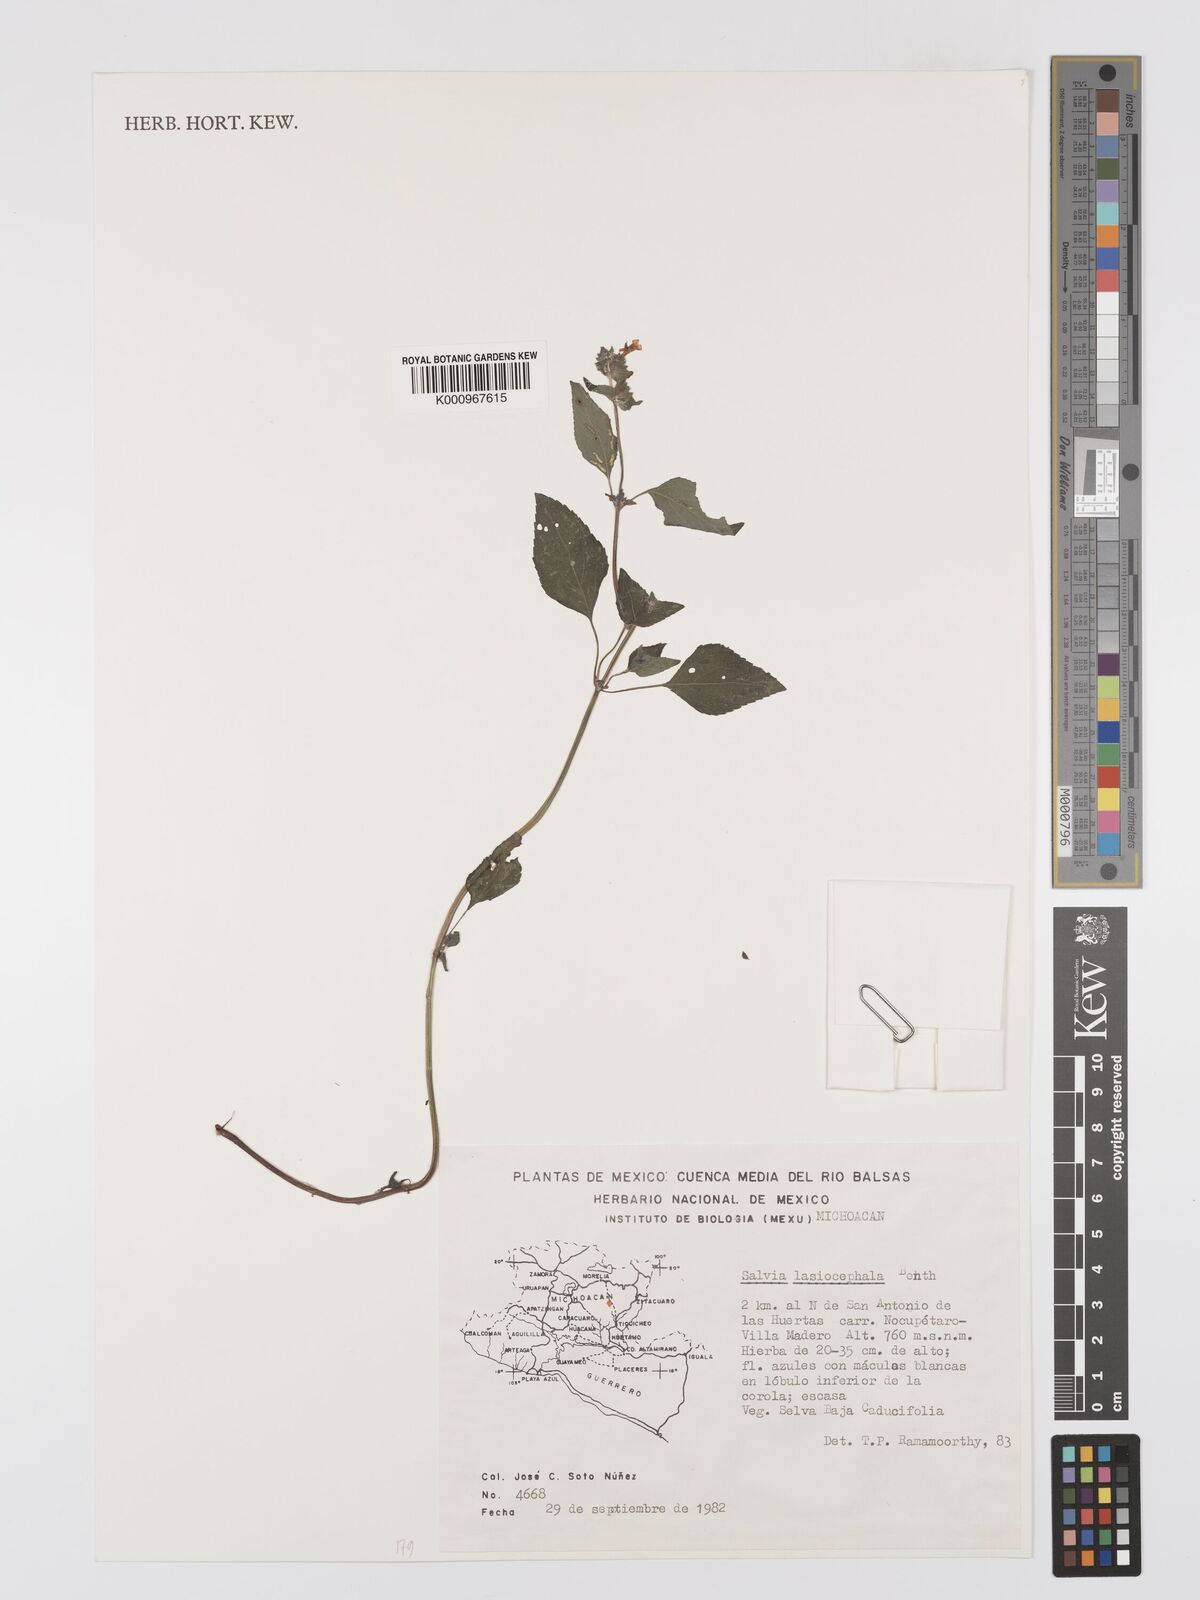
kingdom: Plantae
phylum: Tracheophyta
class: Magnoliopsida
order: Lamiales
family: Lamiaceae
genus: Salvia
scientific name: Salvia lasiocephala
